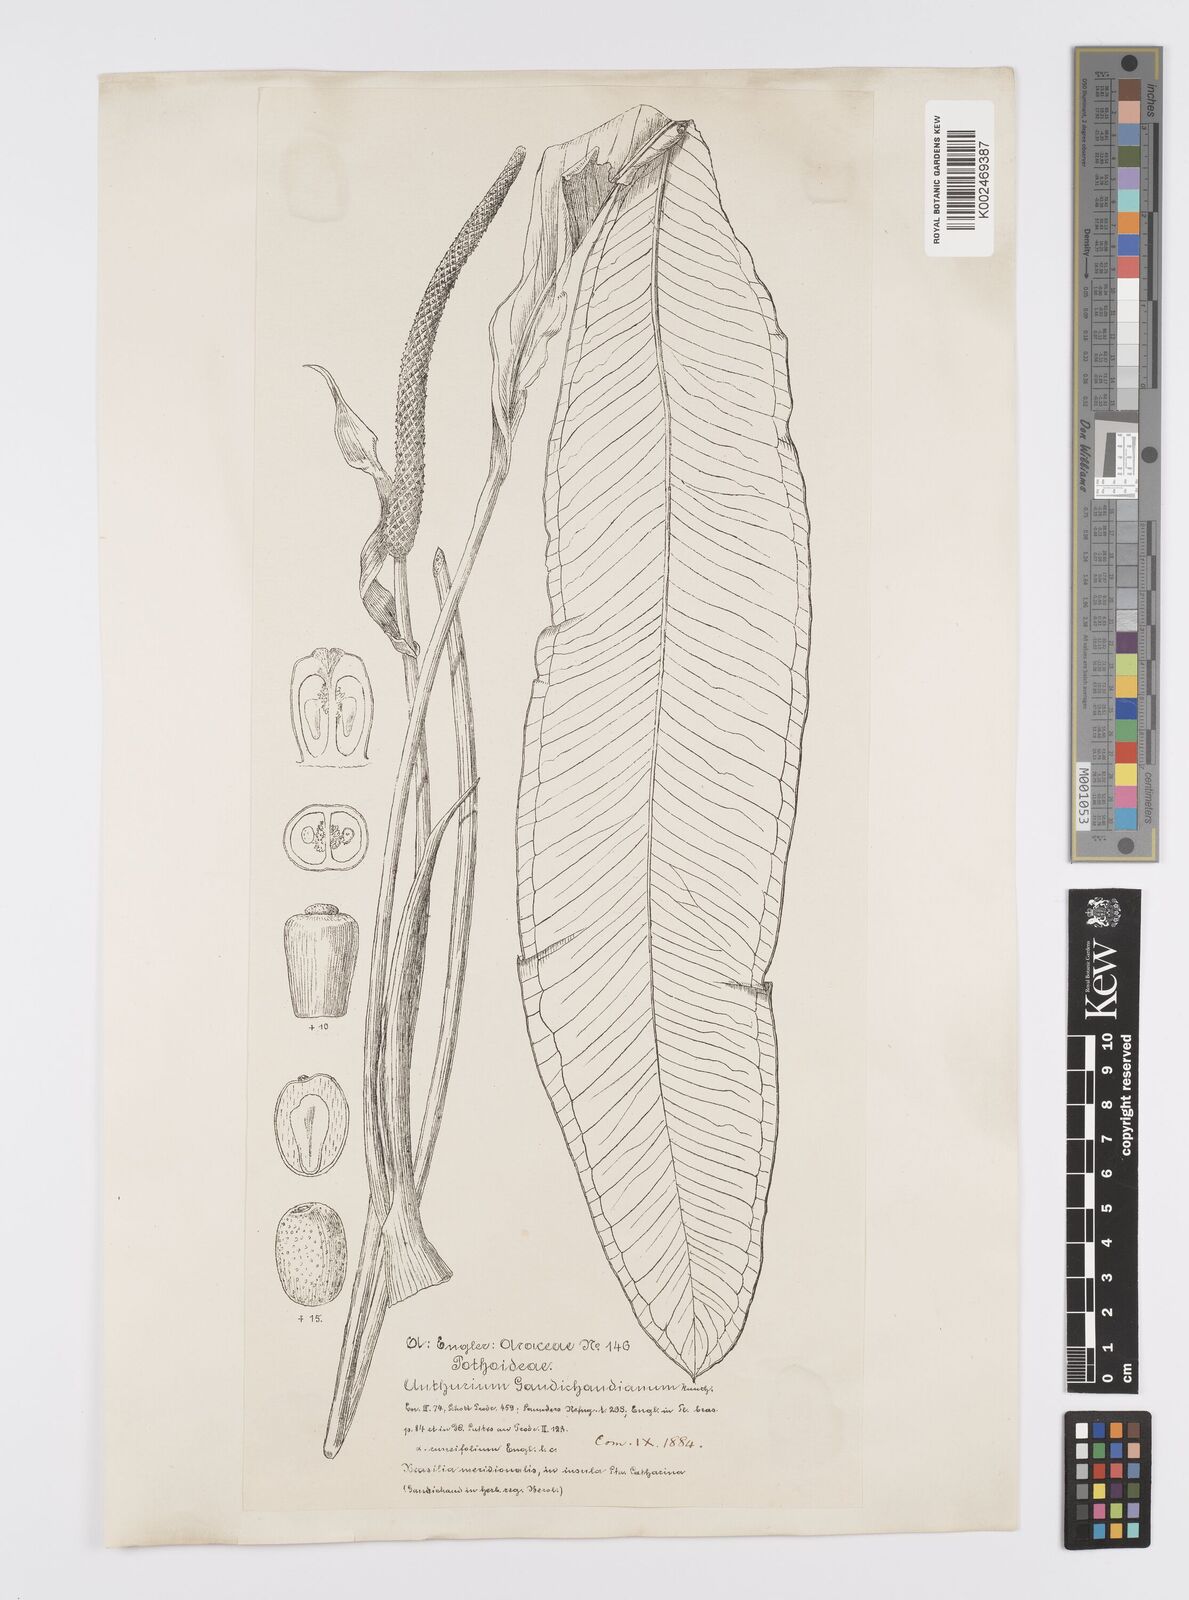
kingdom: Plantae
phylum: Tracheophyta
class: Liliopsida
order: Alismatales
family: Araceae
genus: Anthurium
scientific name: Anthurium gaudichaudianum
